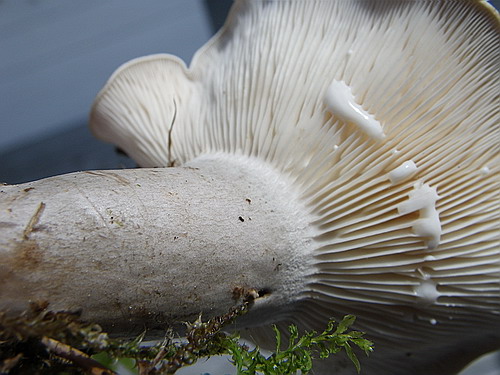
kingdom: Fungi
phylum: Basidiomycota
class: Agaricomycetes
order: Russulales
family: Russulaceae
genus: Lactarius
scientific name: Lactarius fluens
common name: lysrandet mælkehat
